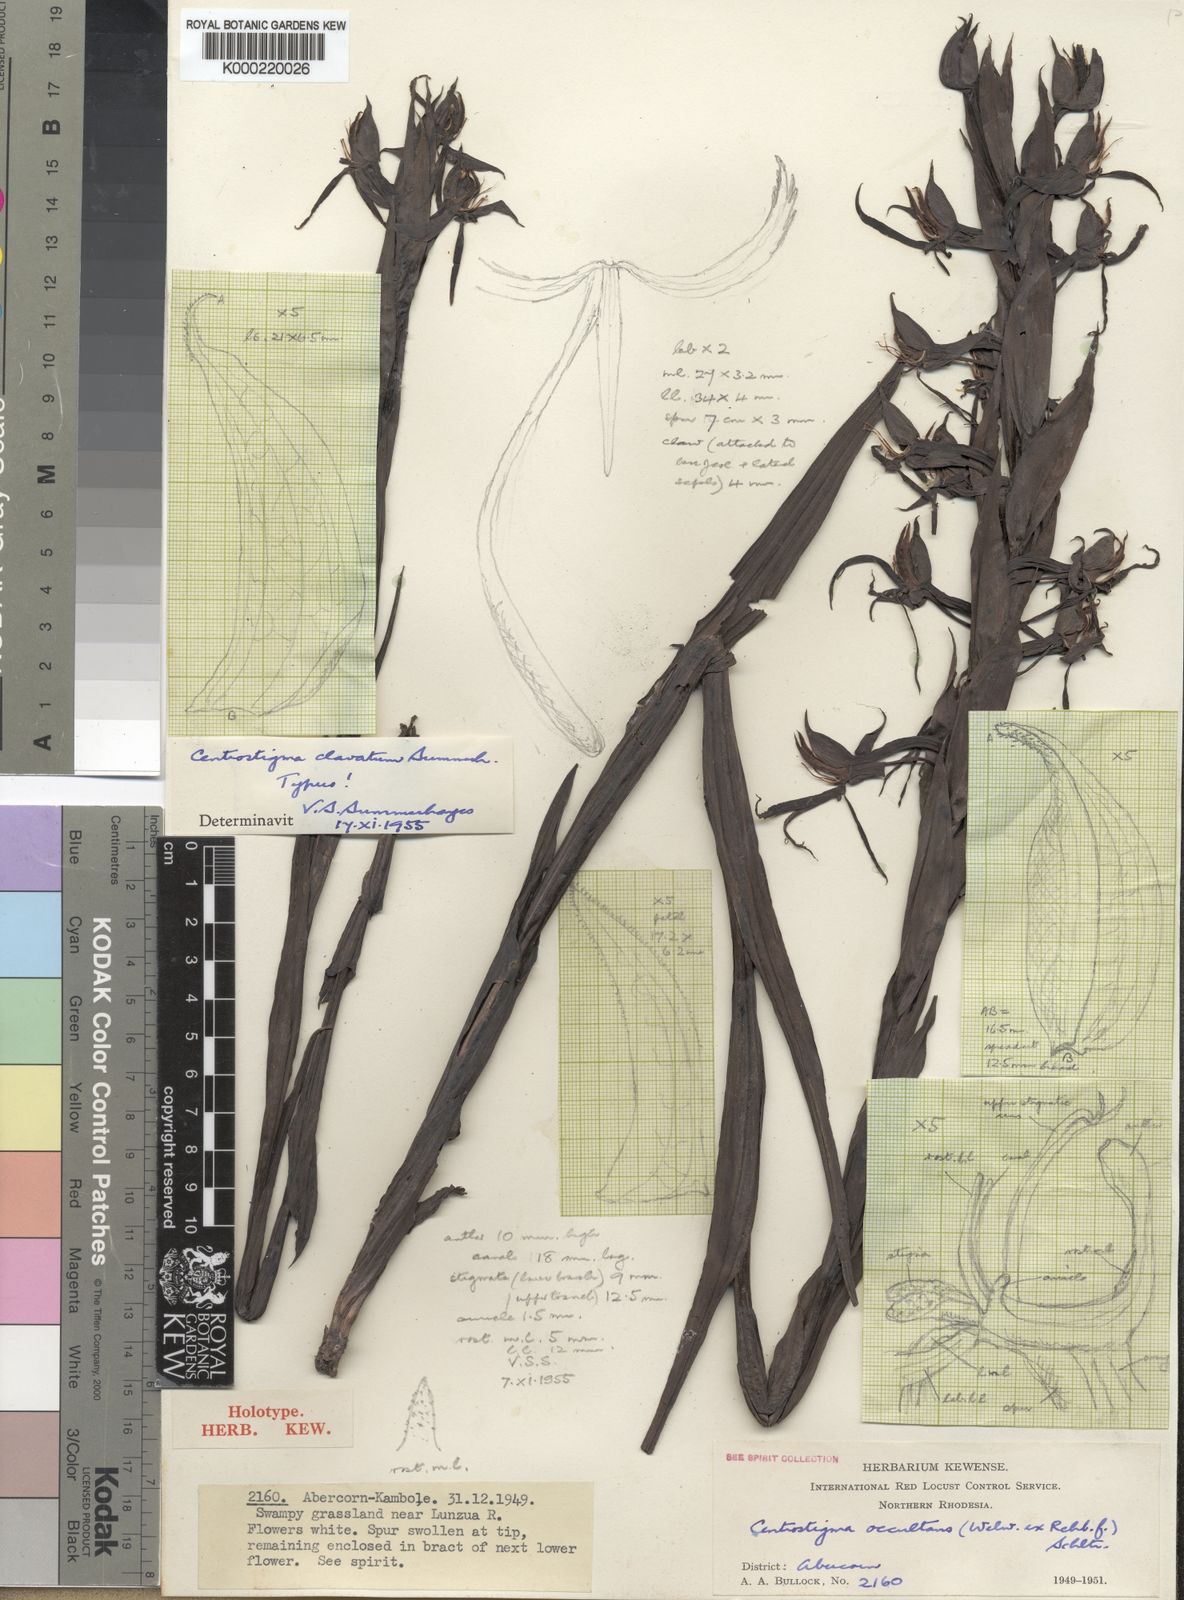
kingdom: Plantae
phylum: Tracheophyta
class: Liliopsida
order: Asparagales
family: Orchidaceae
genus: Centrostigma
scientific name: Centrostigma clavatum
